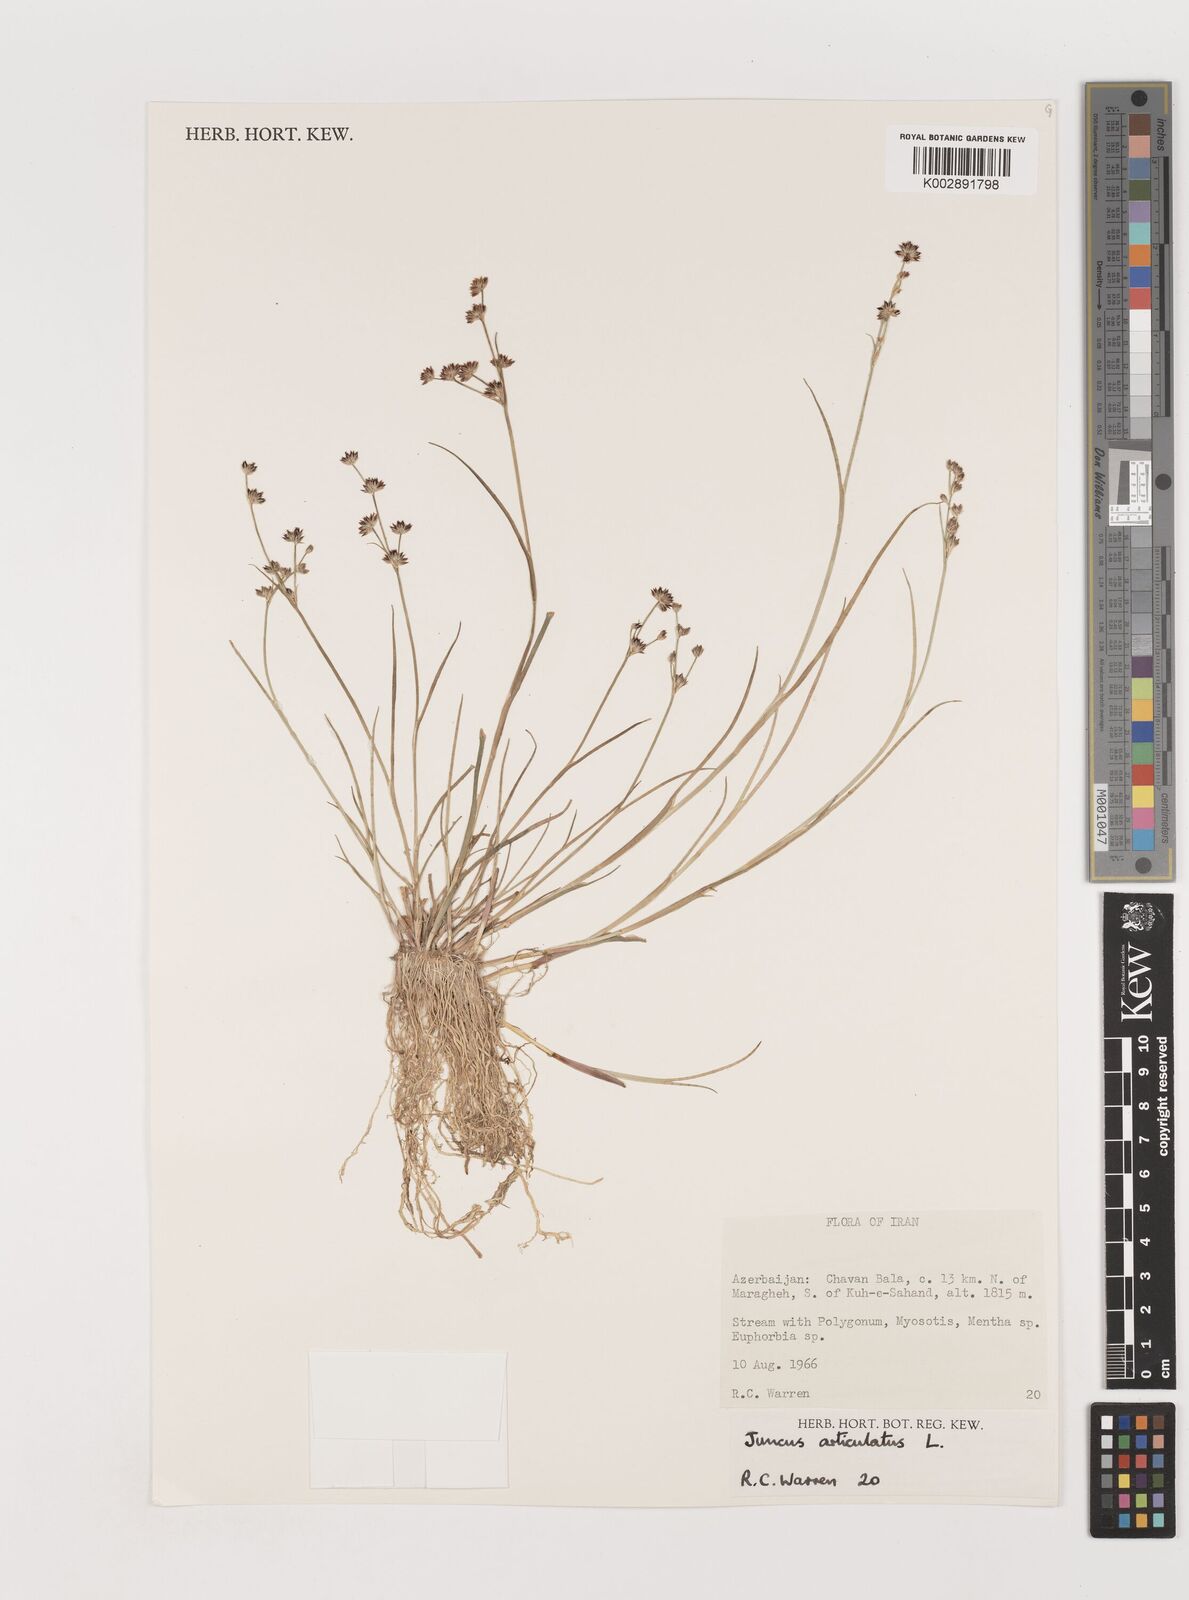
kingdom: Plantae
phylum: Tracheophyta
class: Liliopsida
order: Poales
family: Juncaceae
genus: Juncus
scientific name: Juncus articulatus
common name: Jointed rush
